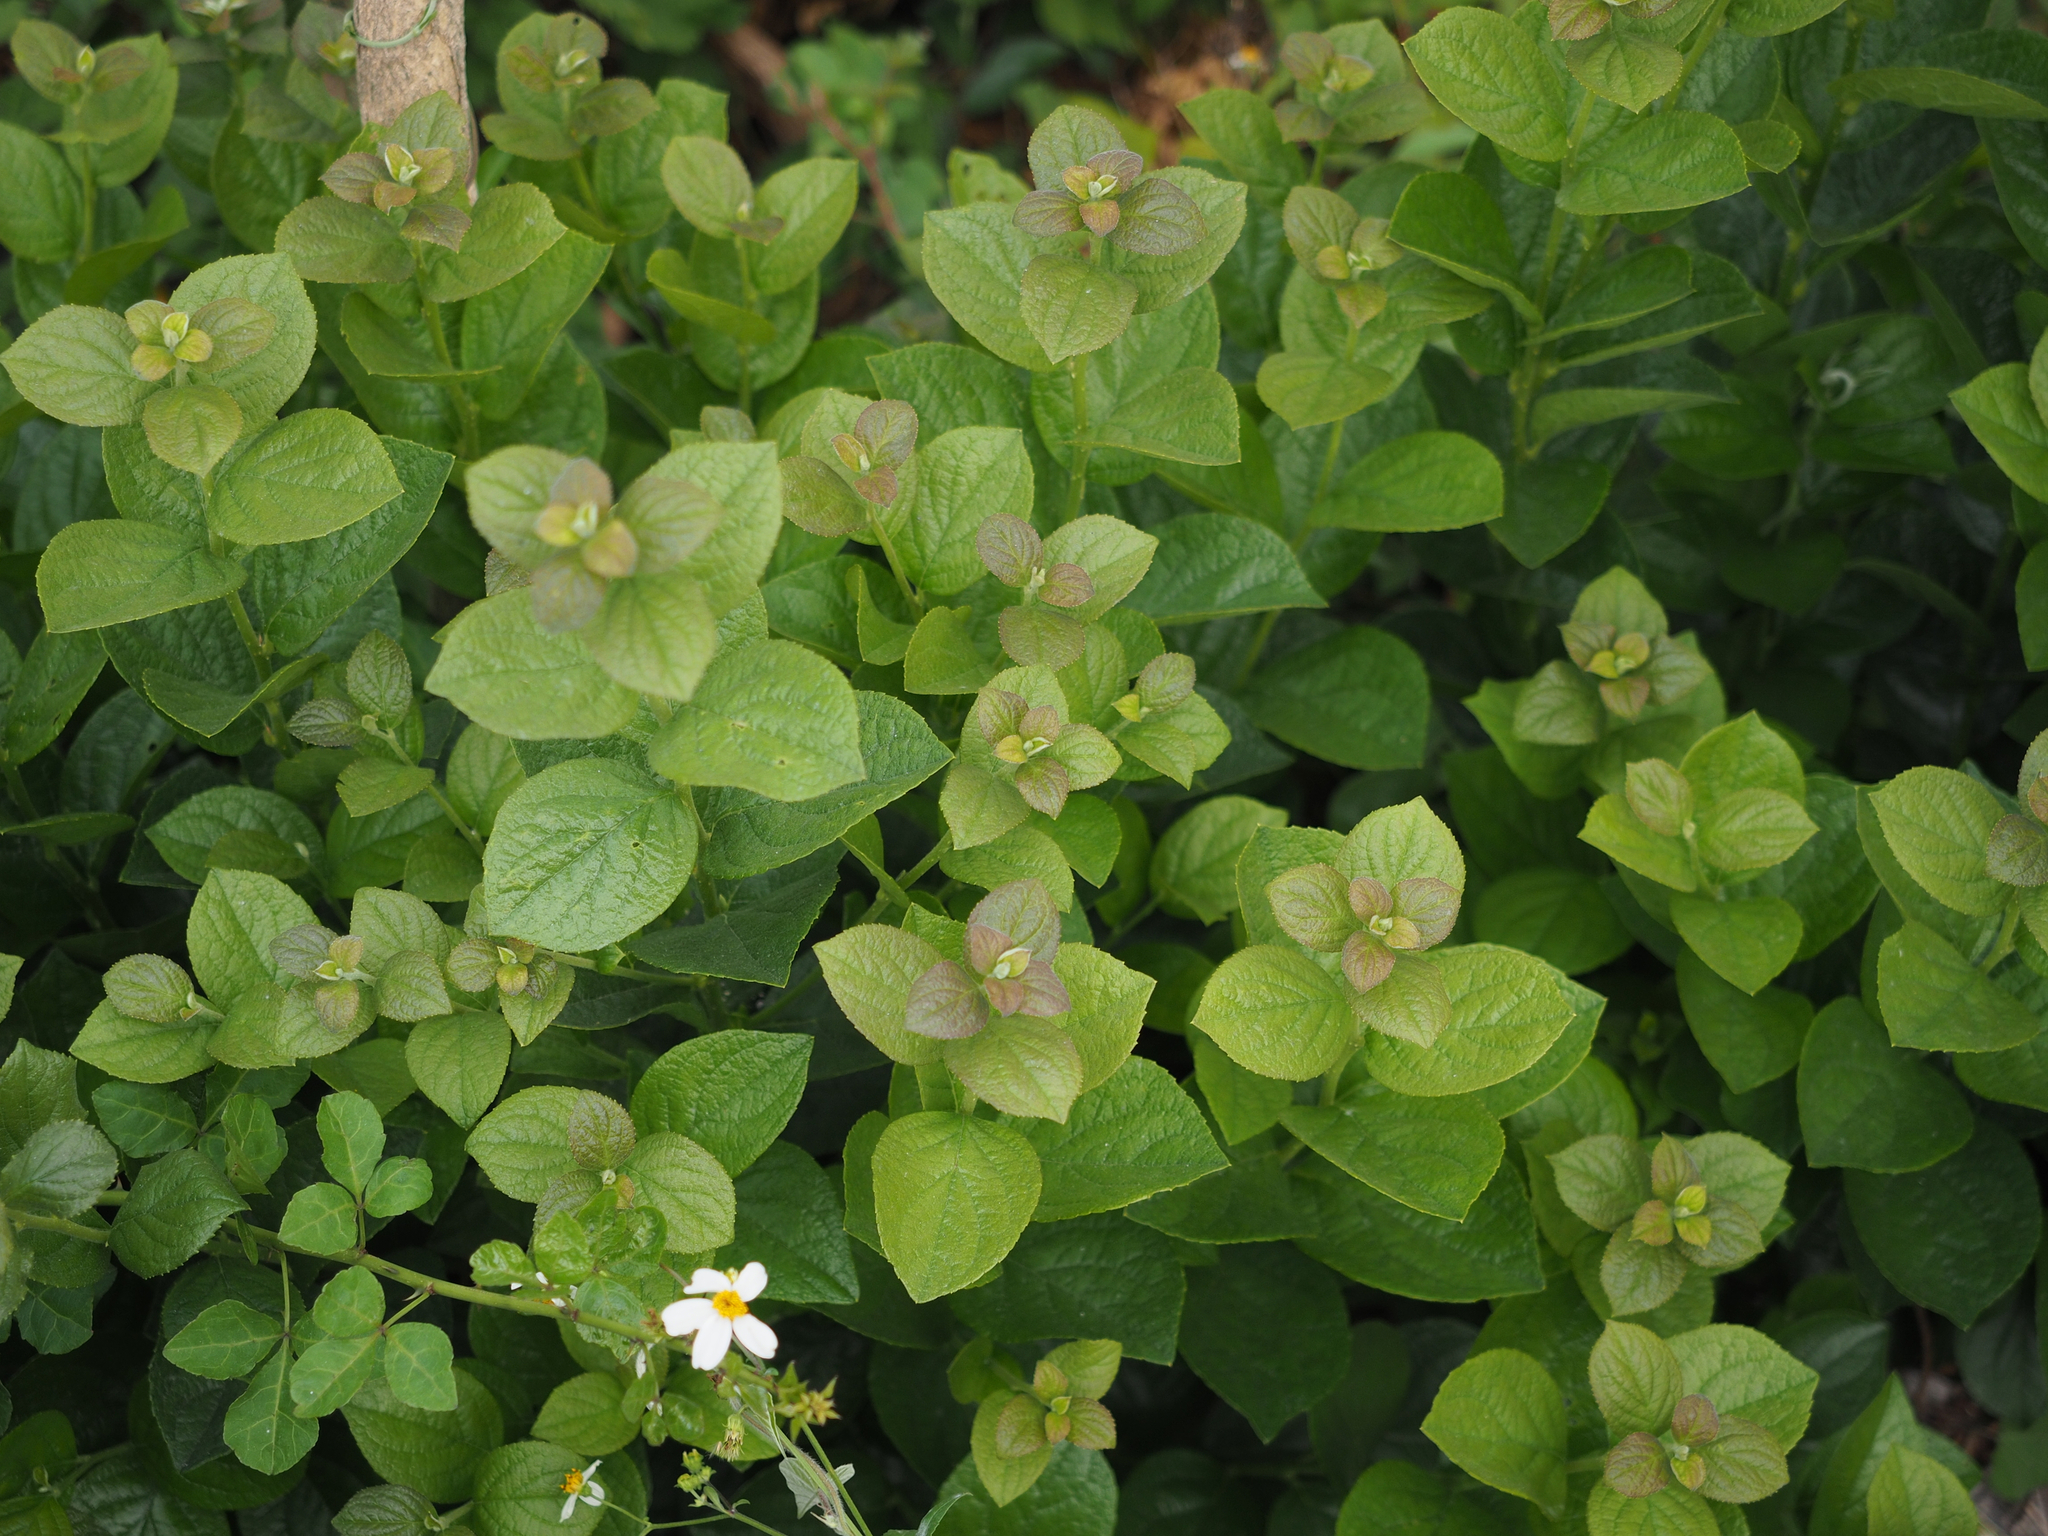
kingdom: Plantae
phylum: Tracheophyta
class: Magnoliopsida
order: Ericales
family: Symplocaceae
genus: Symplocos
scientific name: Symplocos paniculata
